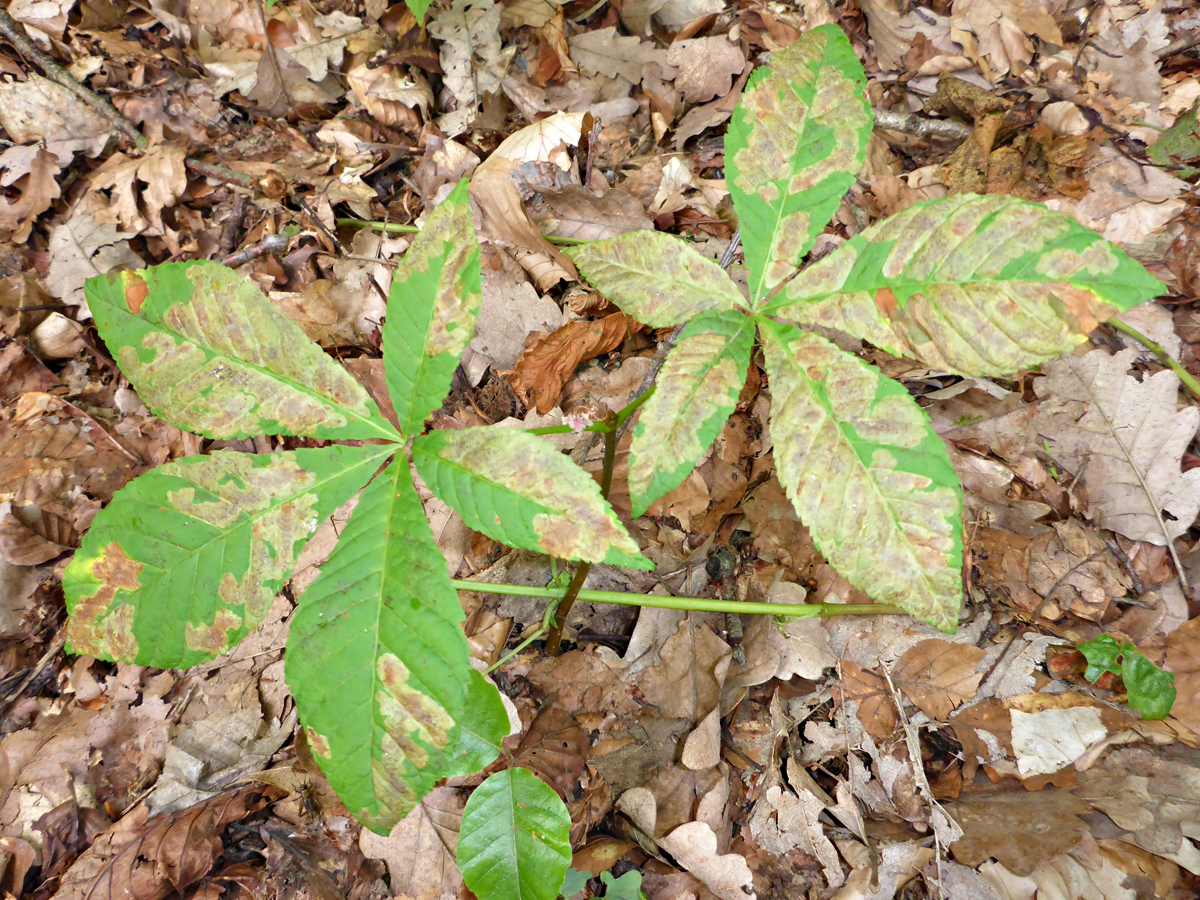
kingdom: Plantae
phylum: Tracheophyta
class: Magnoliopsida
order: Sapindales
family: Sapindaceae
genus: Aesculus
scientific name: Aesculus hippocastanum
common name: Horse-chestnut
